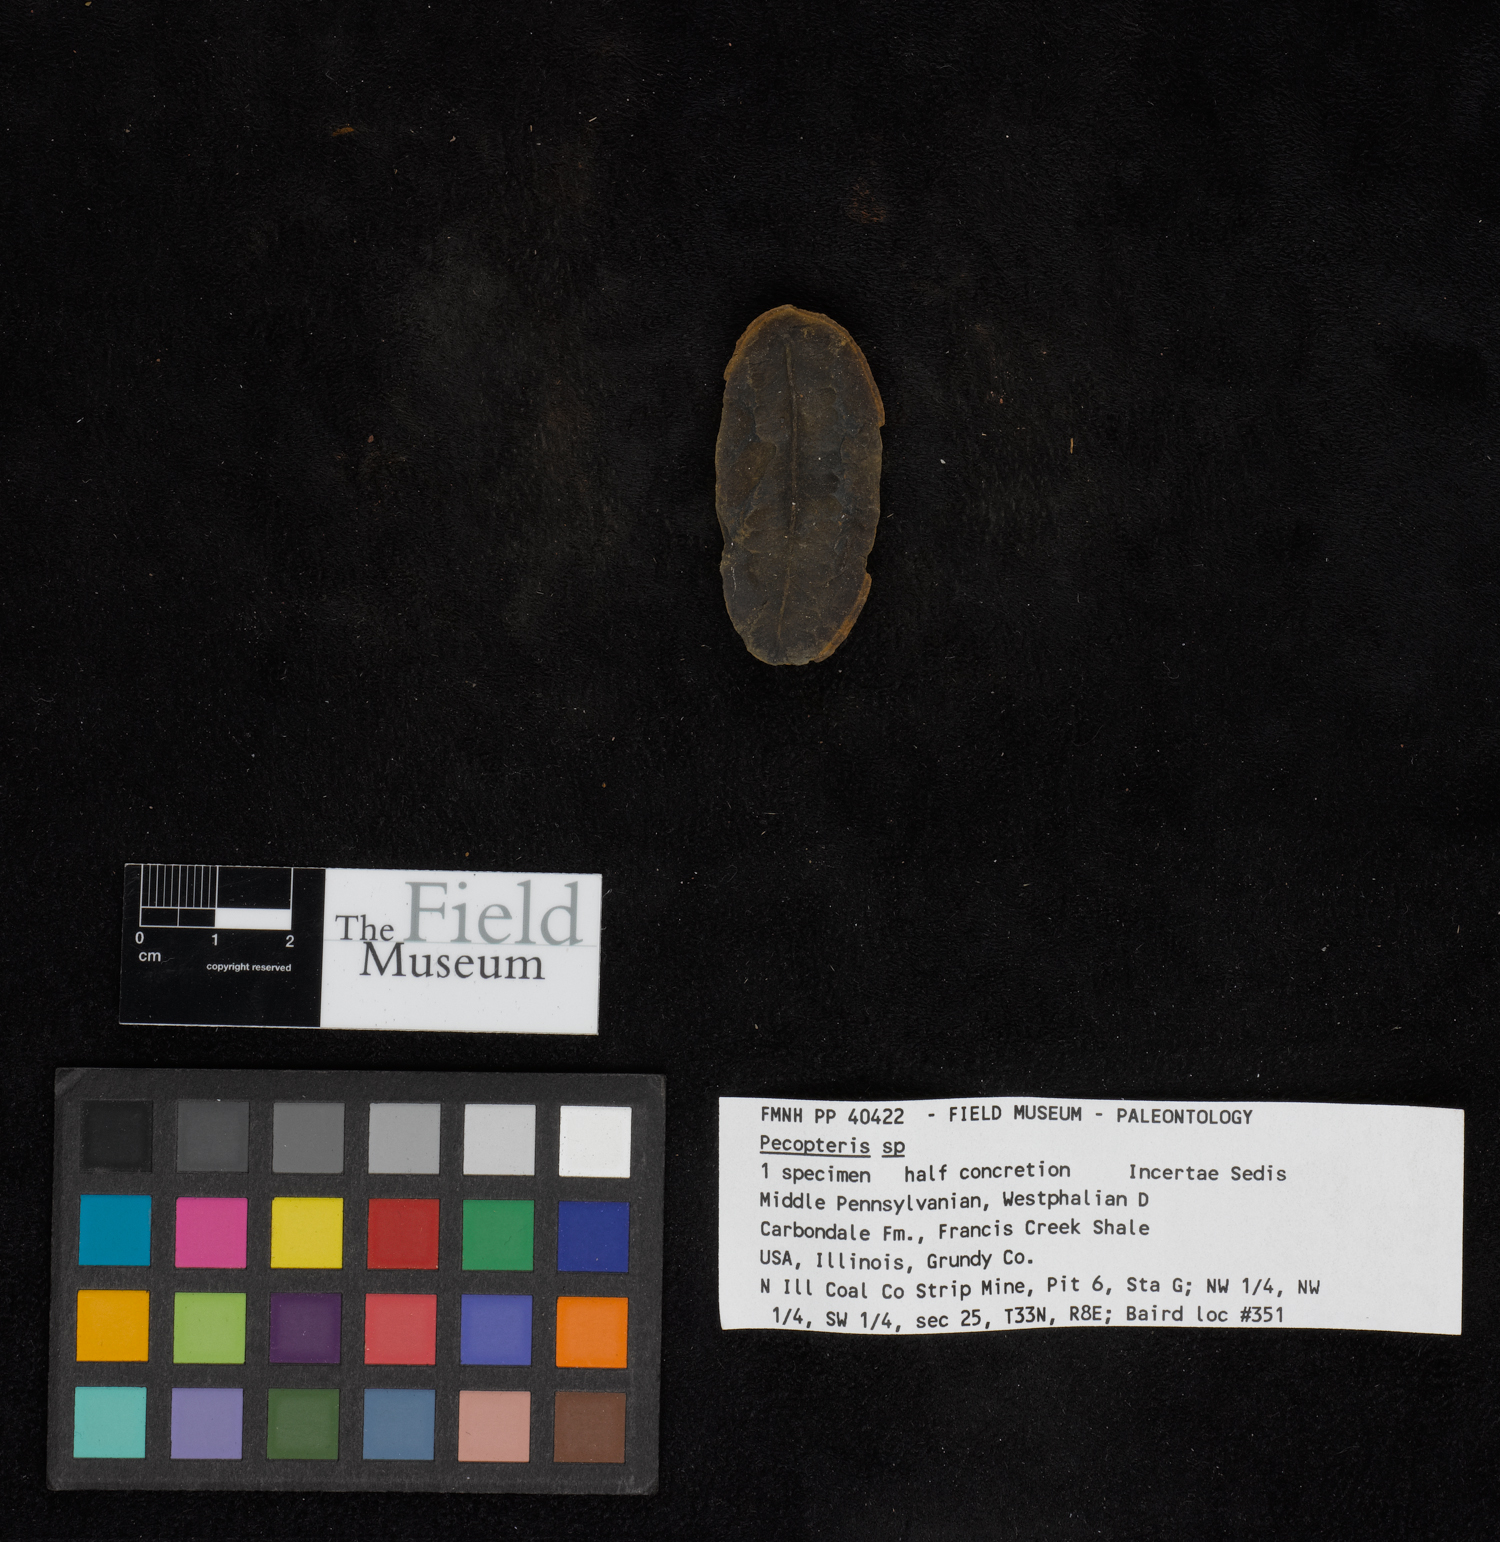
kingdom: Plantae
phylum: Tracheophyta
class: Polypodiopsida
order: Marattiales
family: Asterothecaceae
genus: Pecopteris
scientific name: Pecopteris
